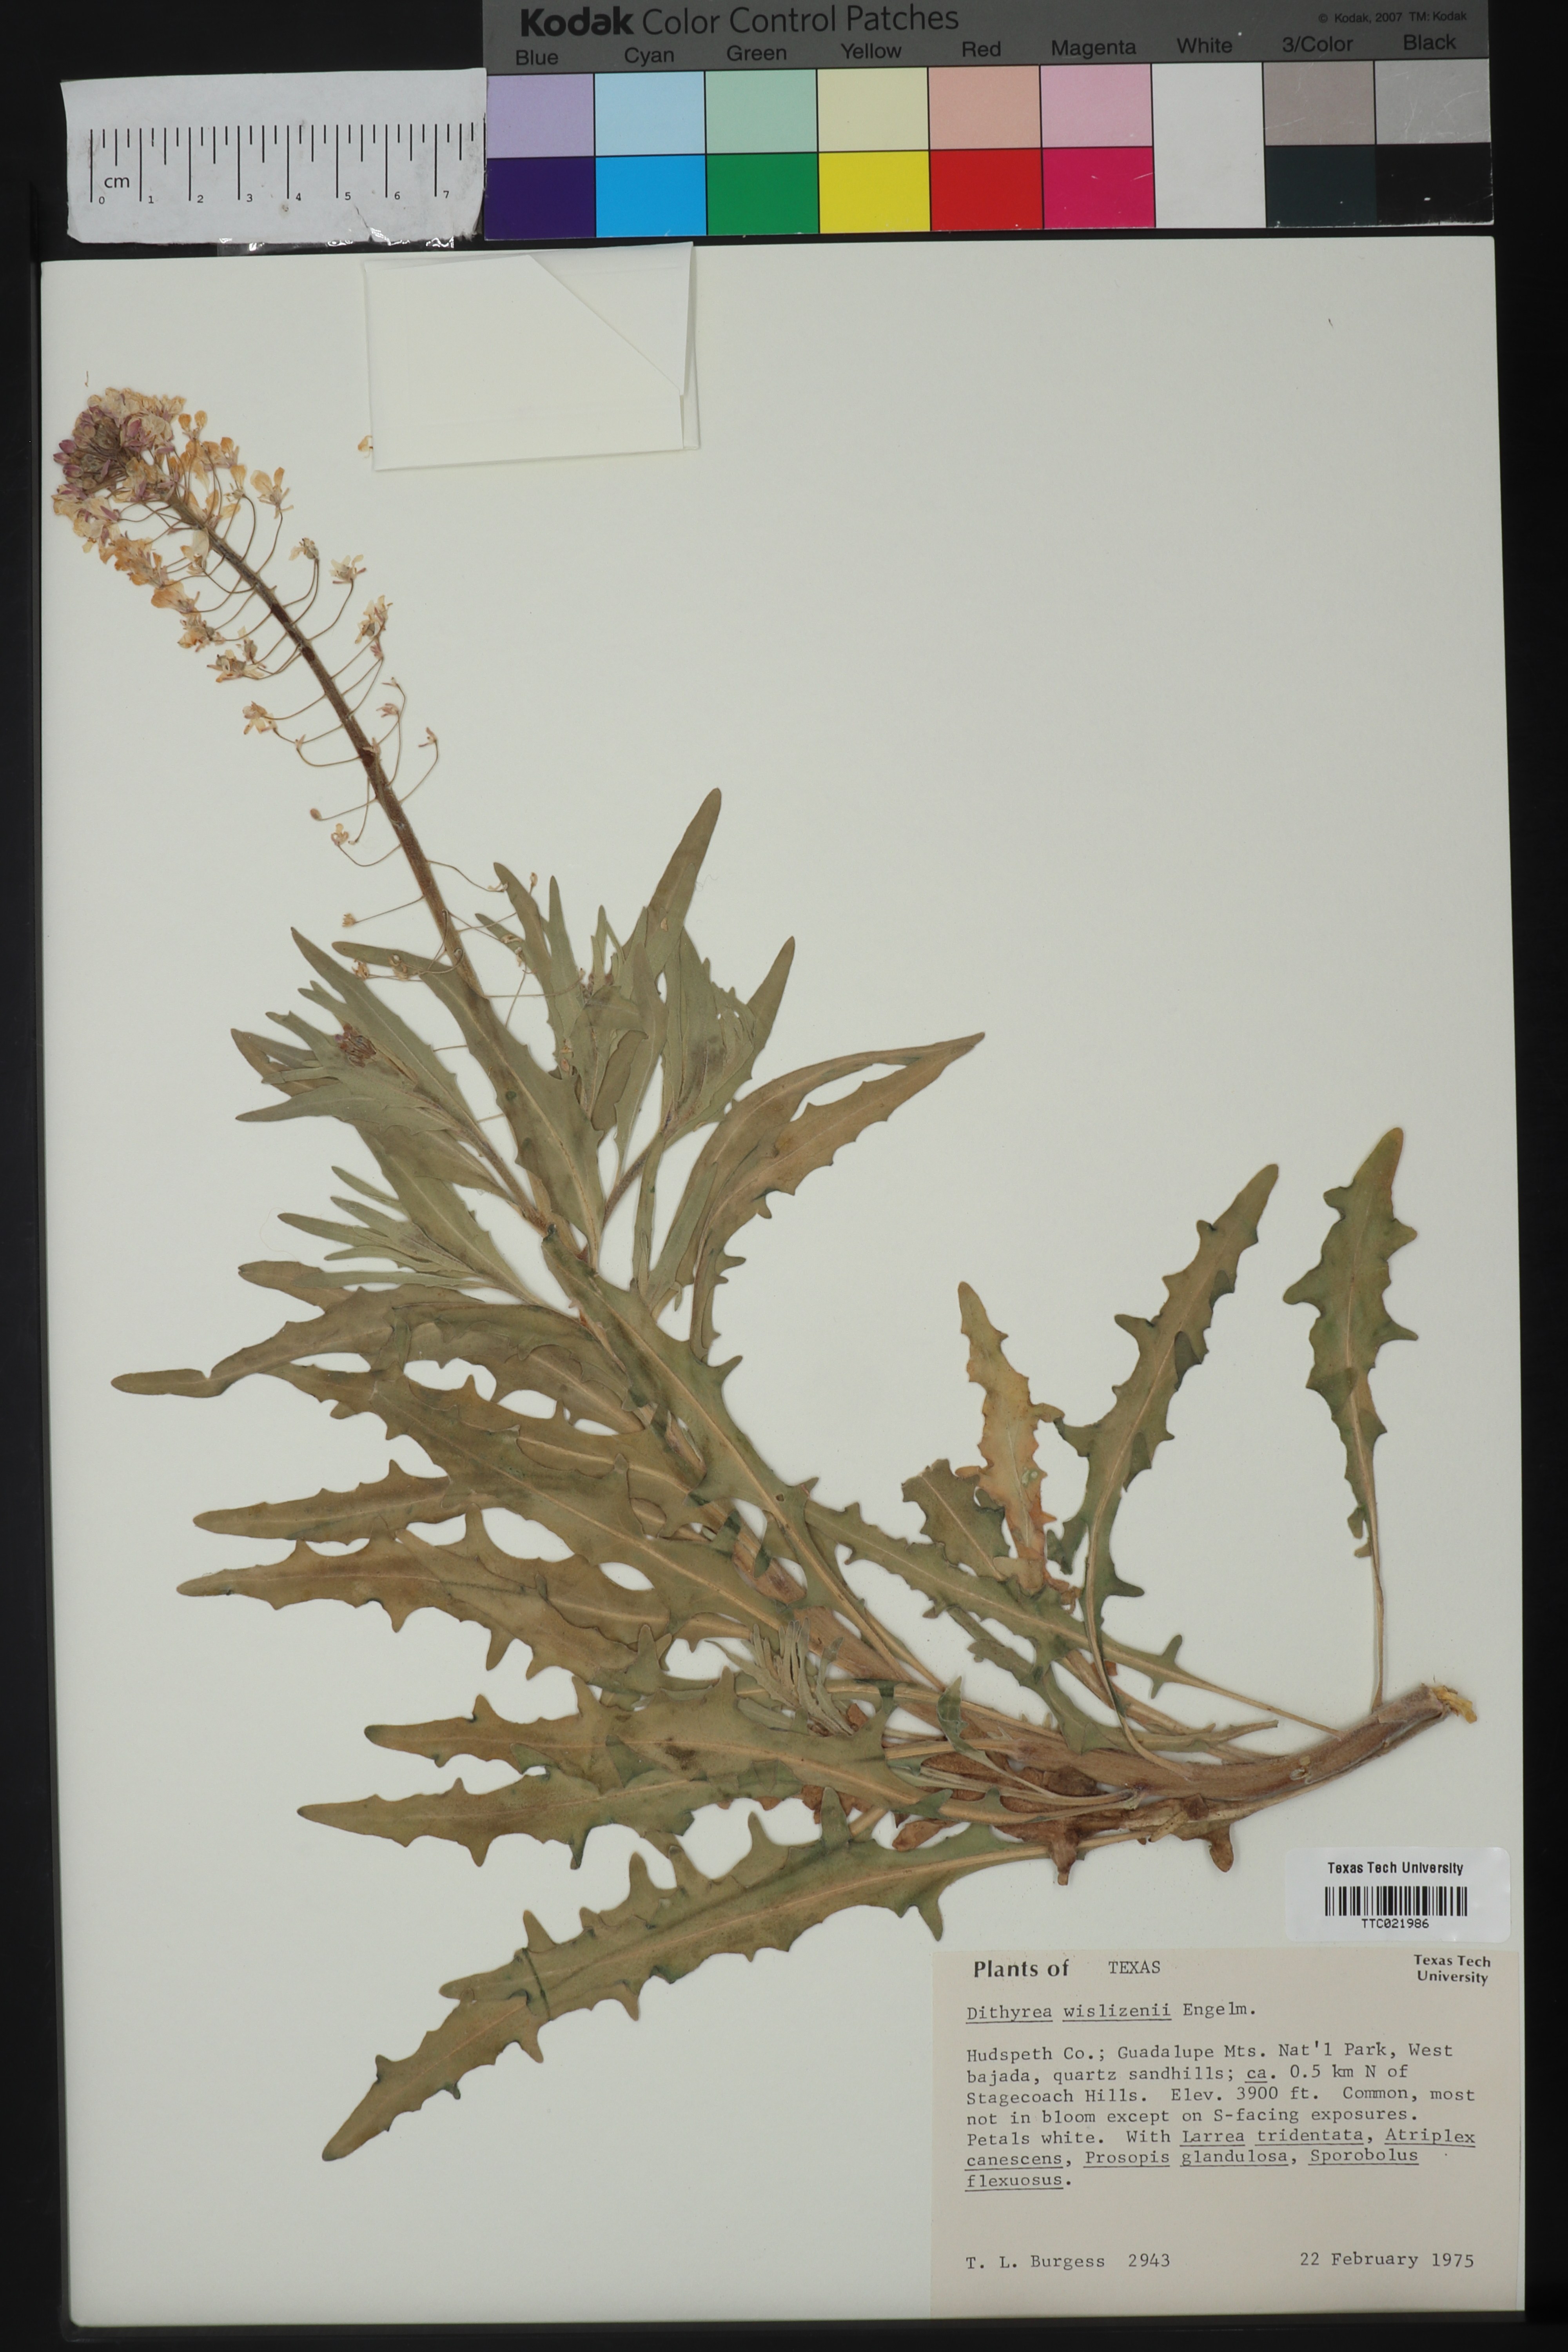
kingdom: Plantae
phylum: Tracheophyta
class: Magnoliopsida
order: Brassicales
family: Brassicaceae
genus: Dimorphocarpa
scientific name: Dimorphocarpa wislizenii
